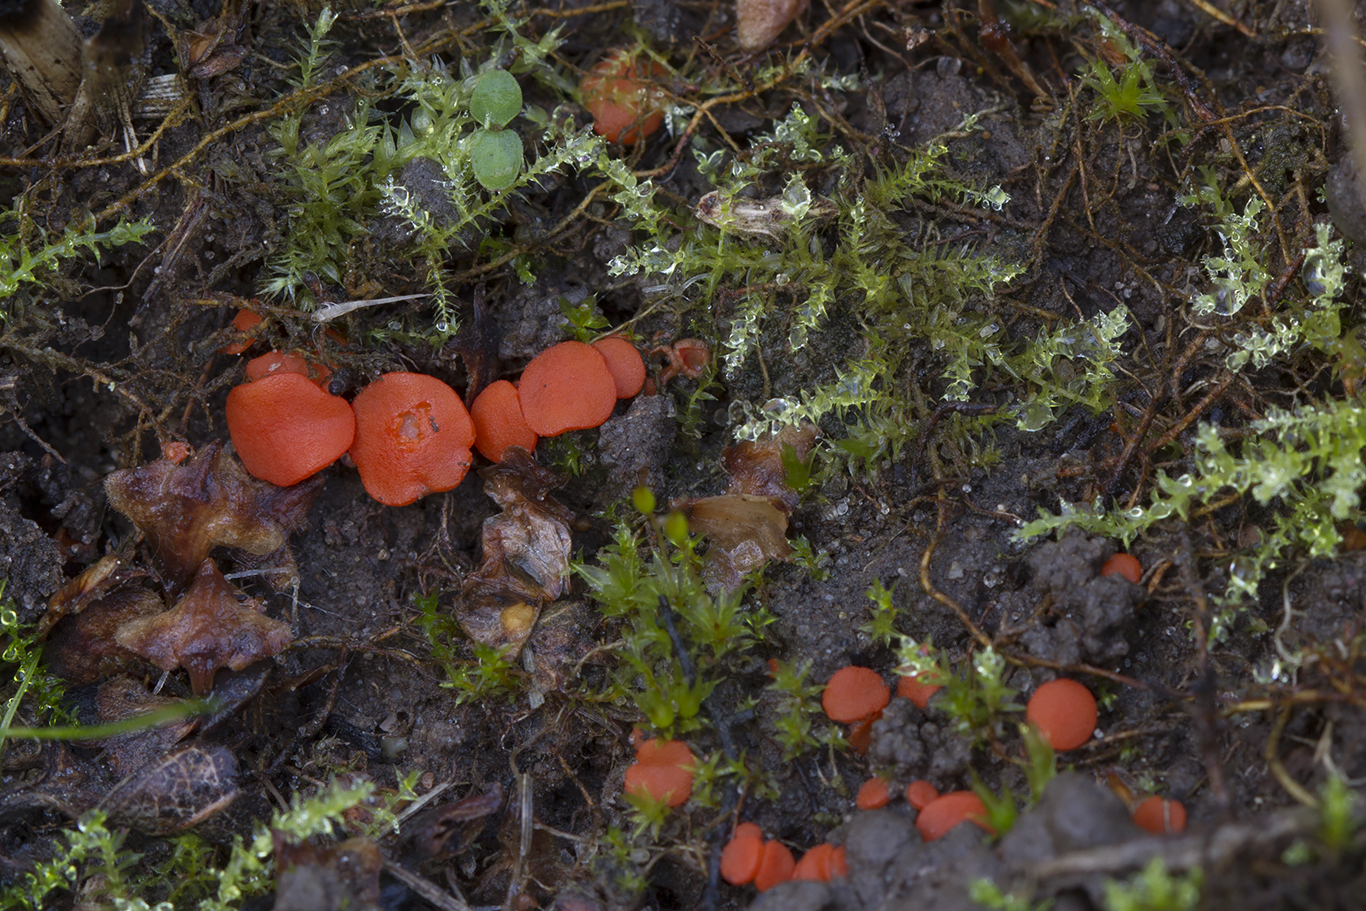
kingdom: Fungi
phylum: Ascomycota
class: Pezizomycetes
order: Pezizales
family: Pulvinulaceae
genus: Pulvinula
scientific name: Pulvinula miltina
